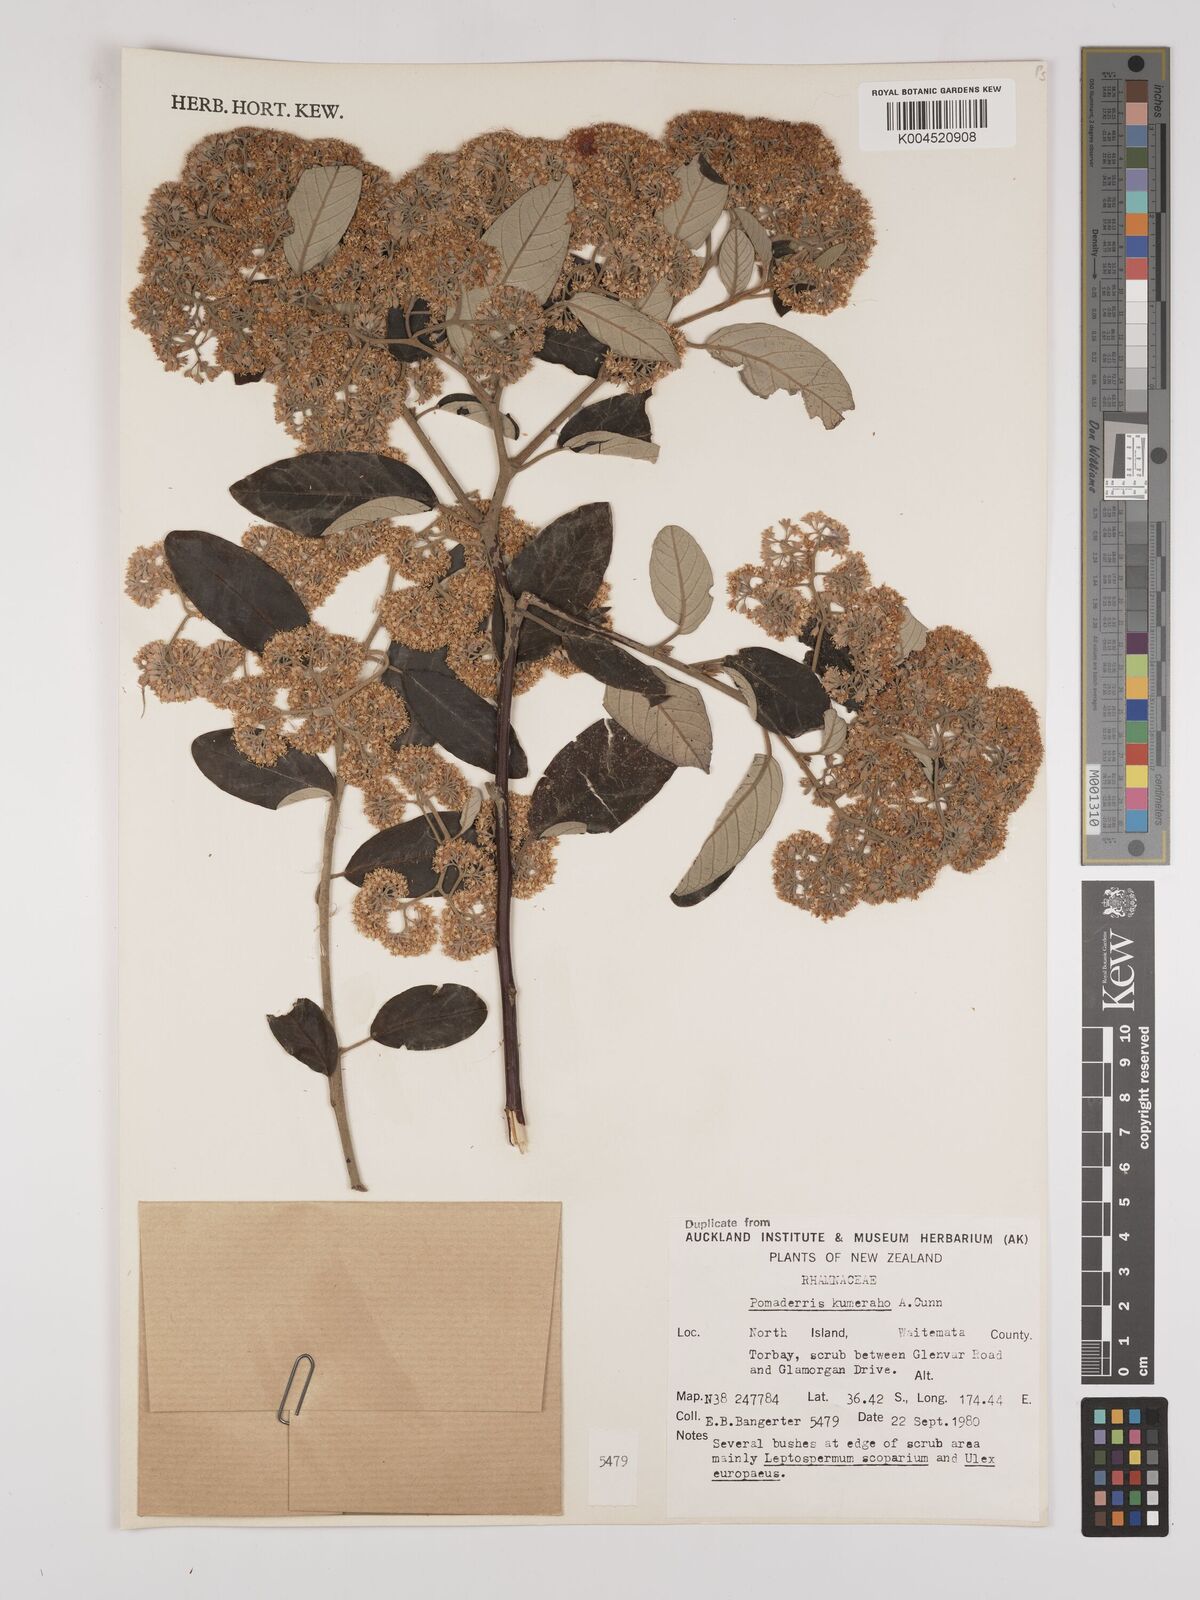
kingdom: Plantae
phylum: Tracheophyta
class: Magnoliopsida
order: Rosales
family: Rhamnaceae
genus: Pomaderris
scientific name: Pomaderris kumeraho
